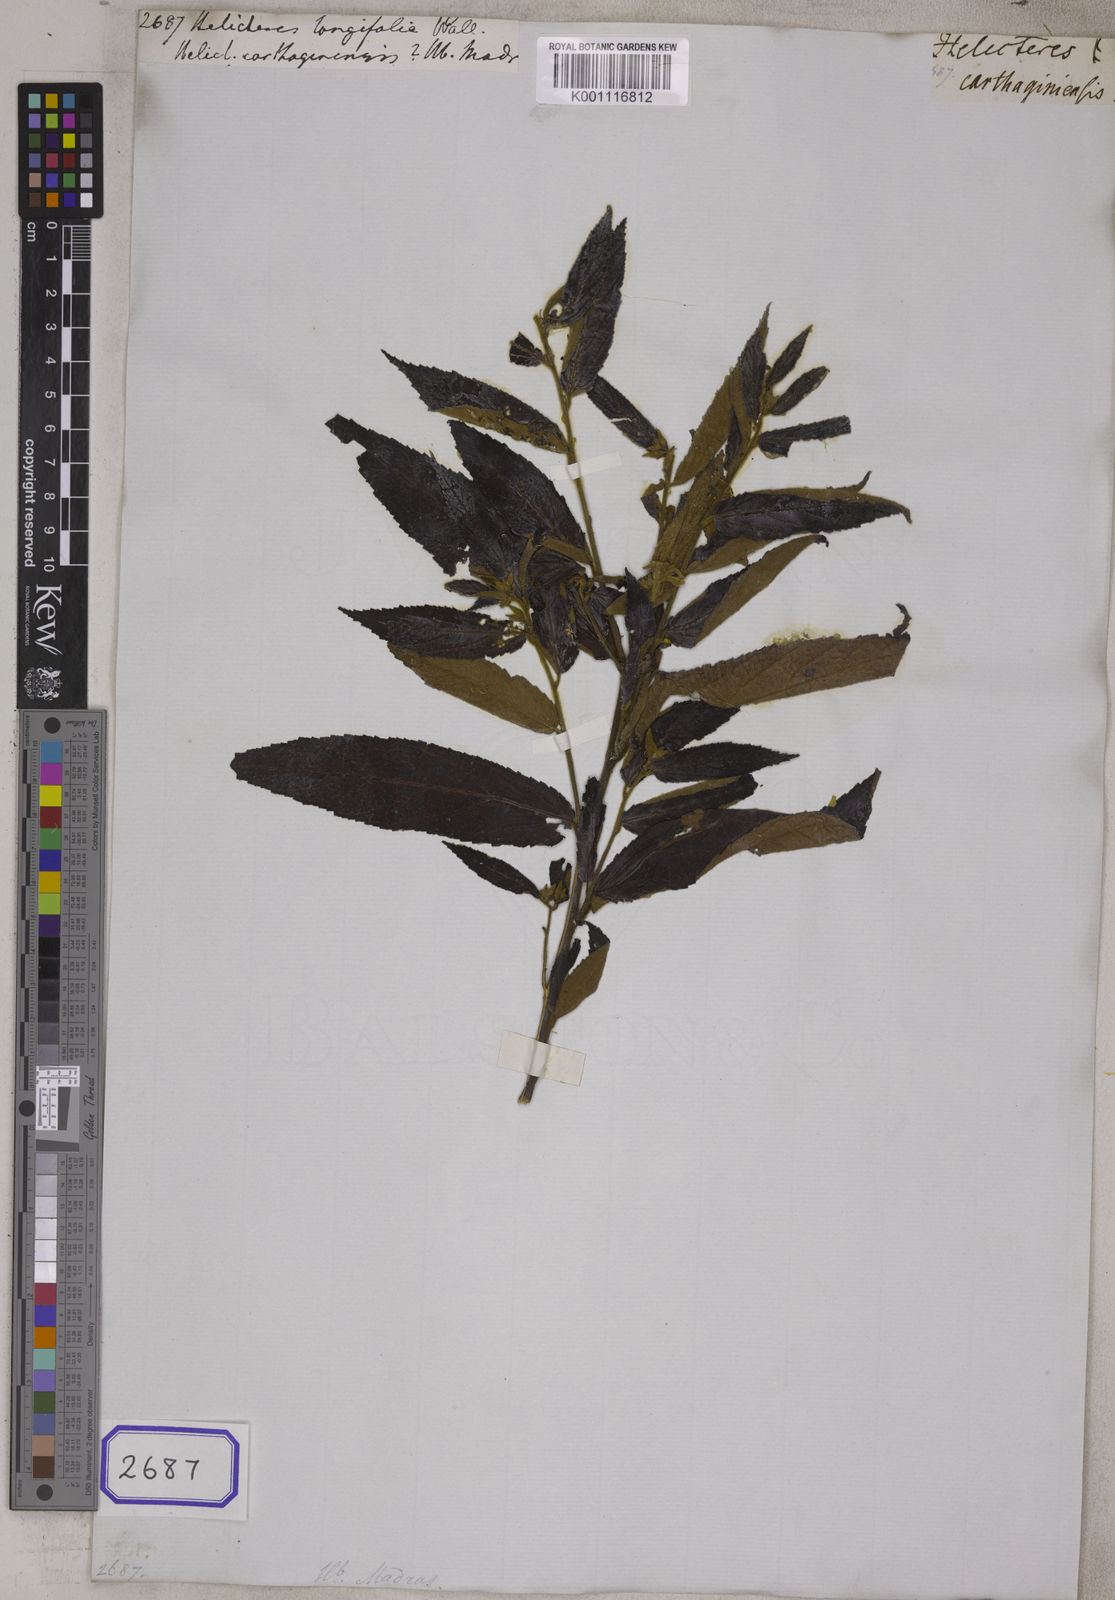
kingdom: Plantae
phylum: Tracheophyta
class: Magnoliopsida
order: Malvales
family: Malvaceae
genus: Helicteres
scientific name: Helicteres hirsuta
